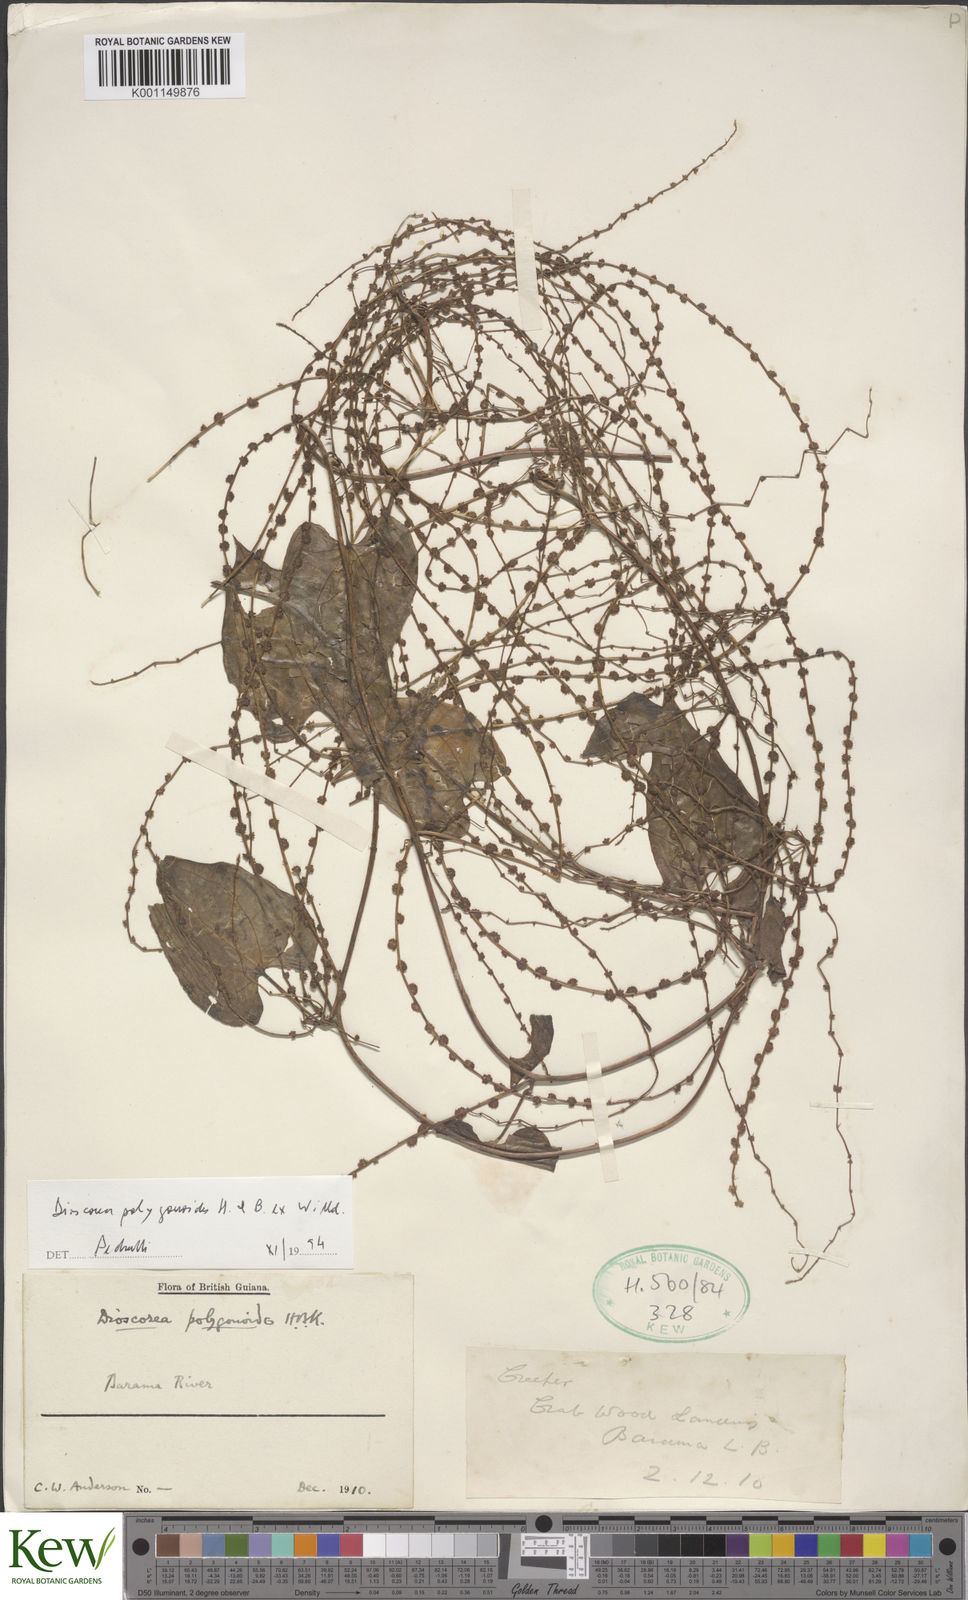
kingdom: Plantae
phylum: Tracheophyta
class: Liliopsida
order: Dioscoreales
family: Dioscoreaceae
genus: Dioscorea
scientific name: Dioscorea polygonoides
